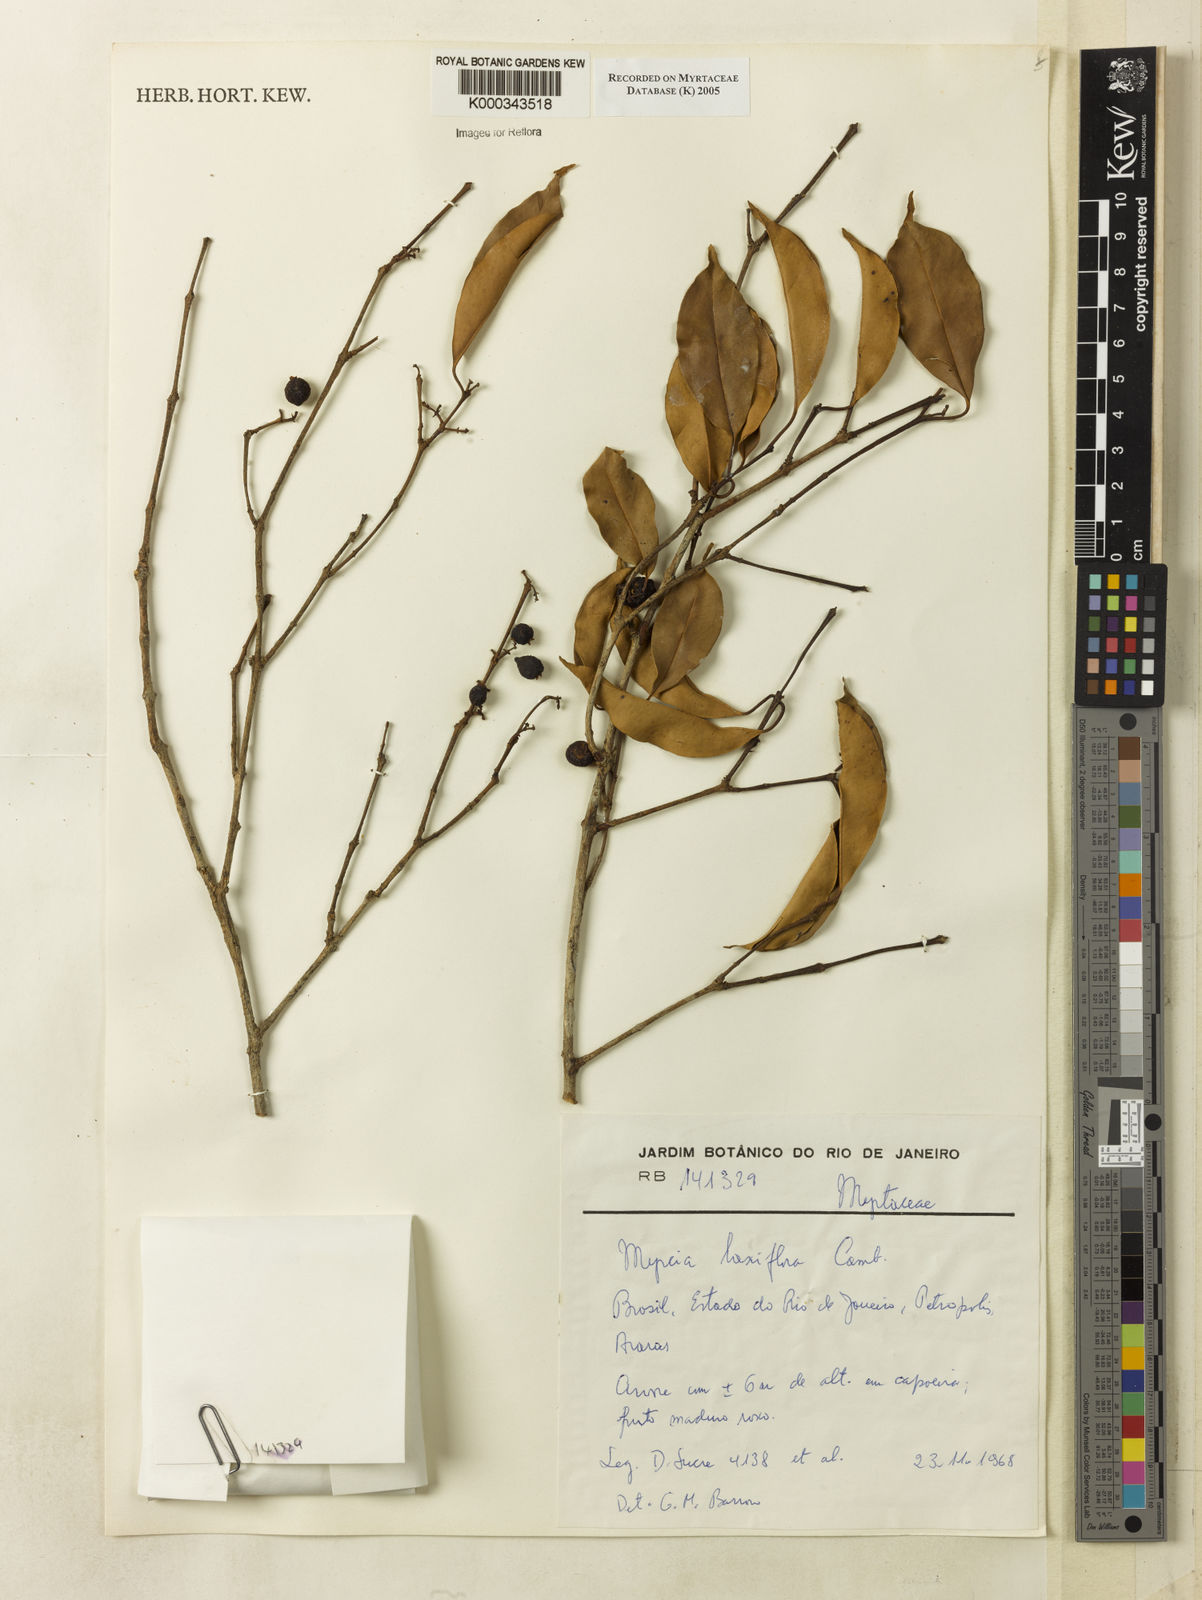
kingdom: Plantae
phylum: Tracheophyta
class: Magnoliopsida
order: Myrtales
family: Myrtaceae
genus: Myrcia
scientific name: Myrcia laxiflora
